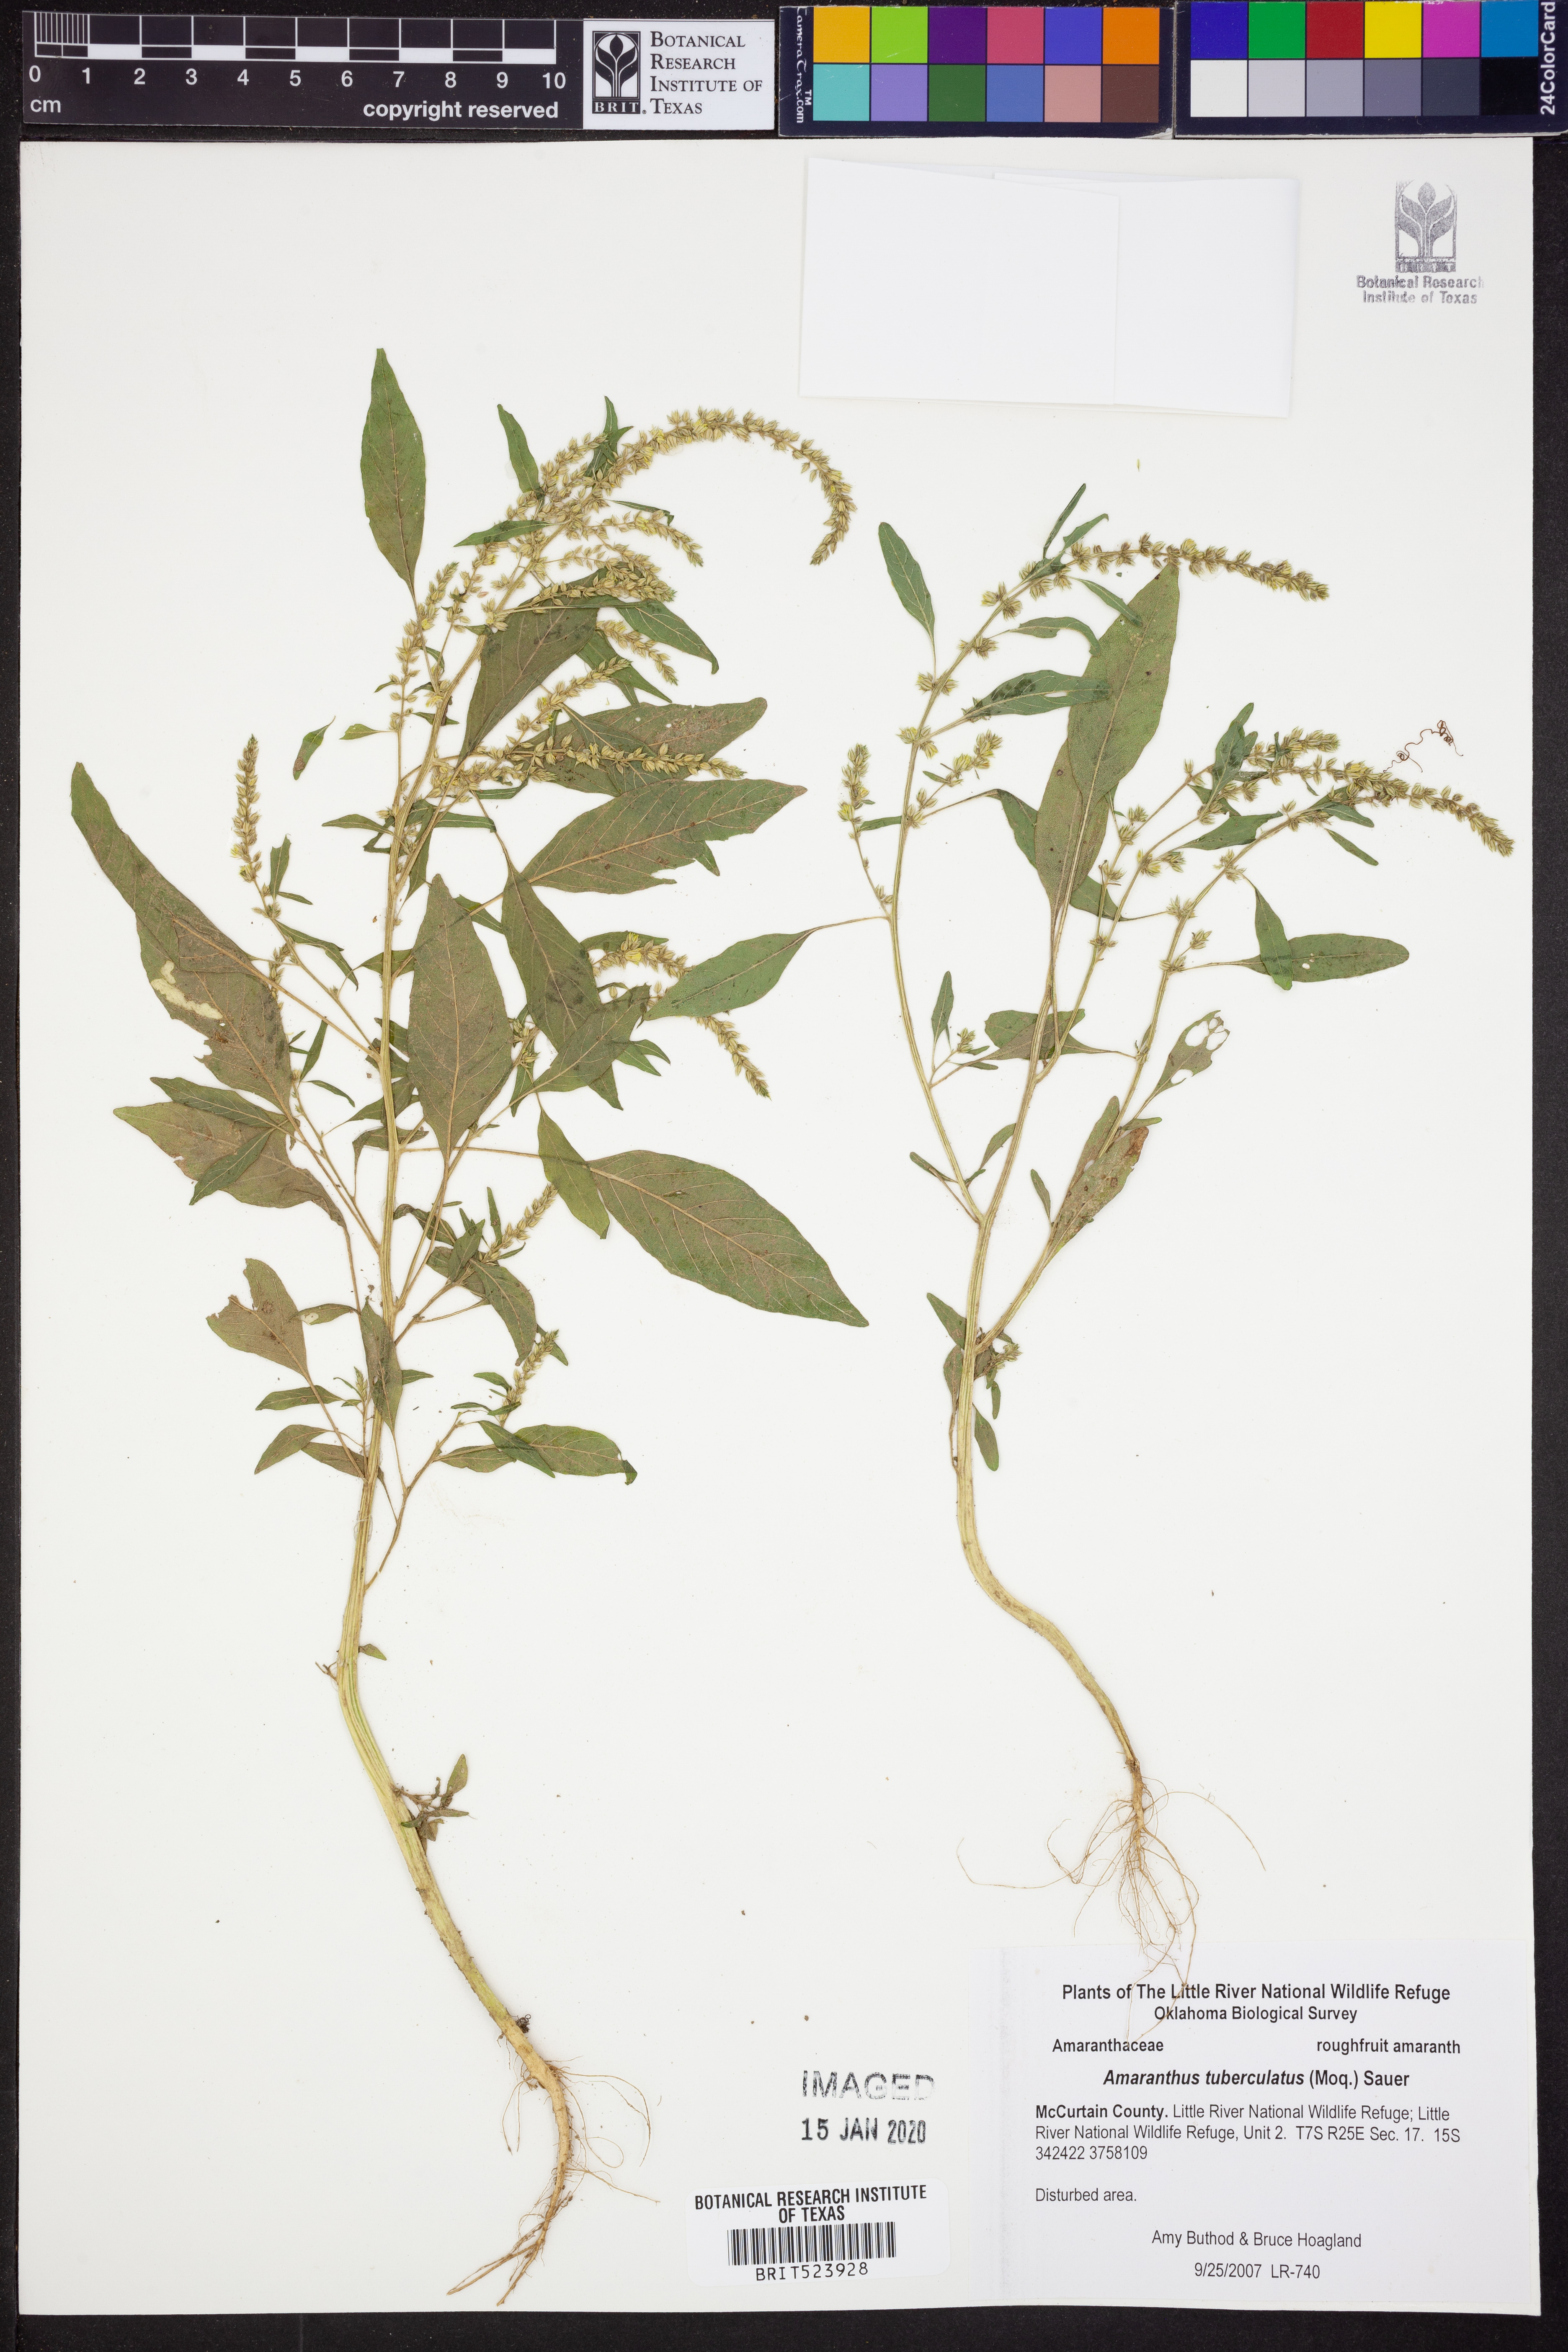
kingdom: Plantae
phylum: Tracheophyta
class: Magnoliopsida
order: Caryophyllales
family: Amaranthaceae
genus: Amaranthus
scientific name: Amaranthus tuberculatus
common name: Rough-fruit amaranth
